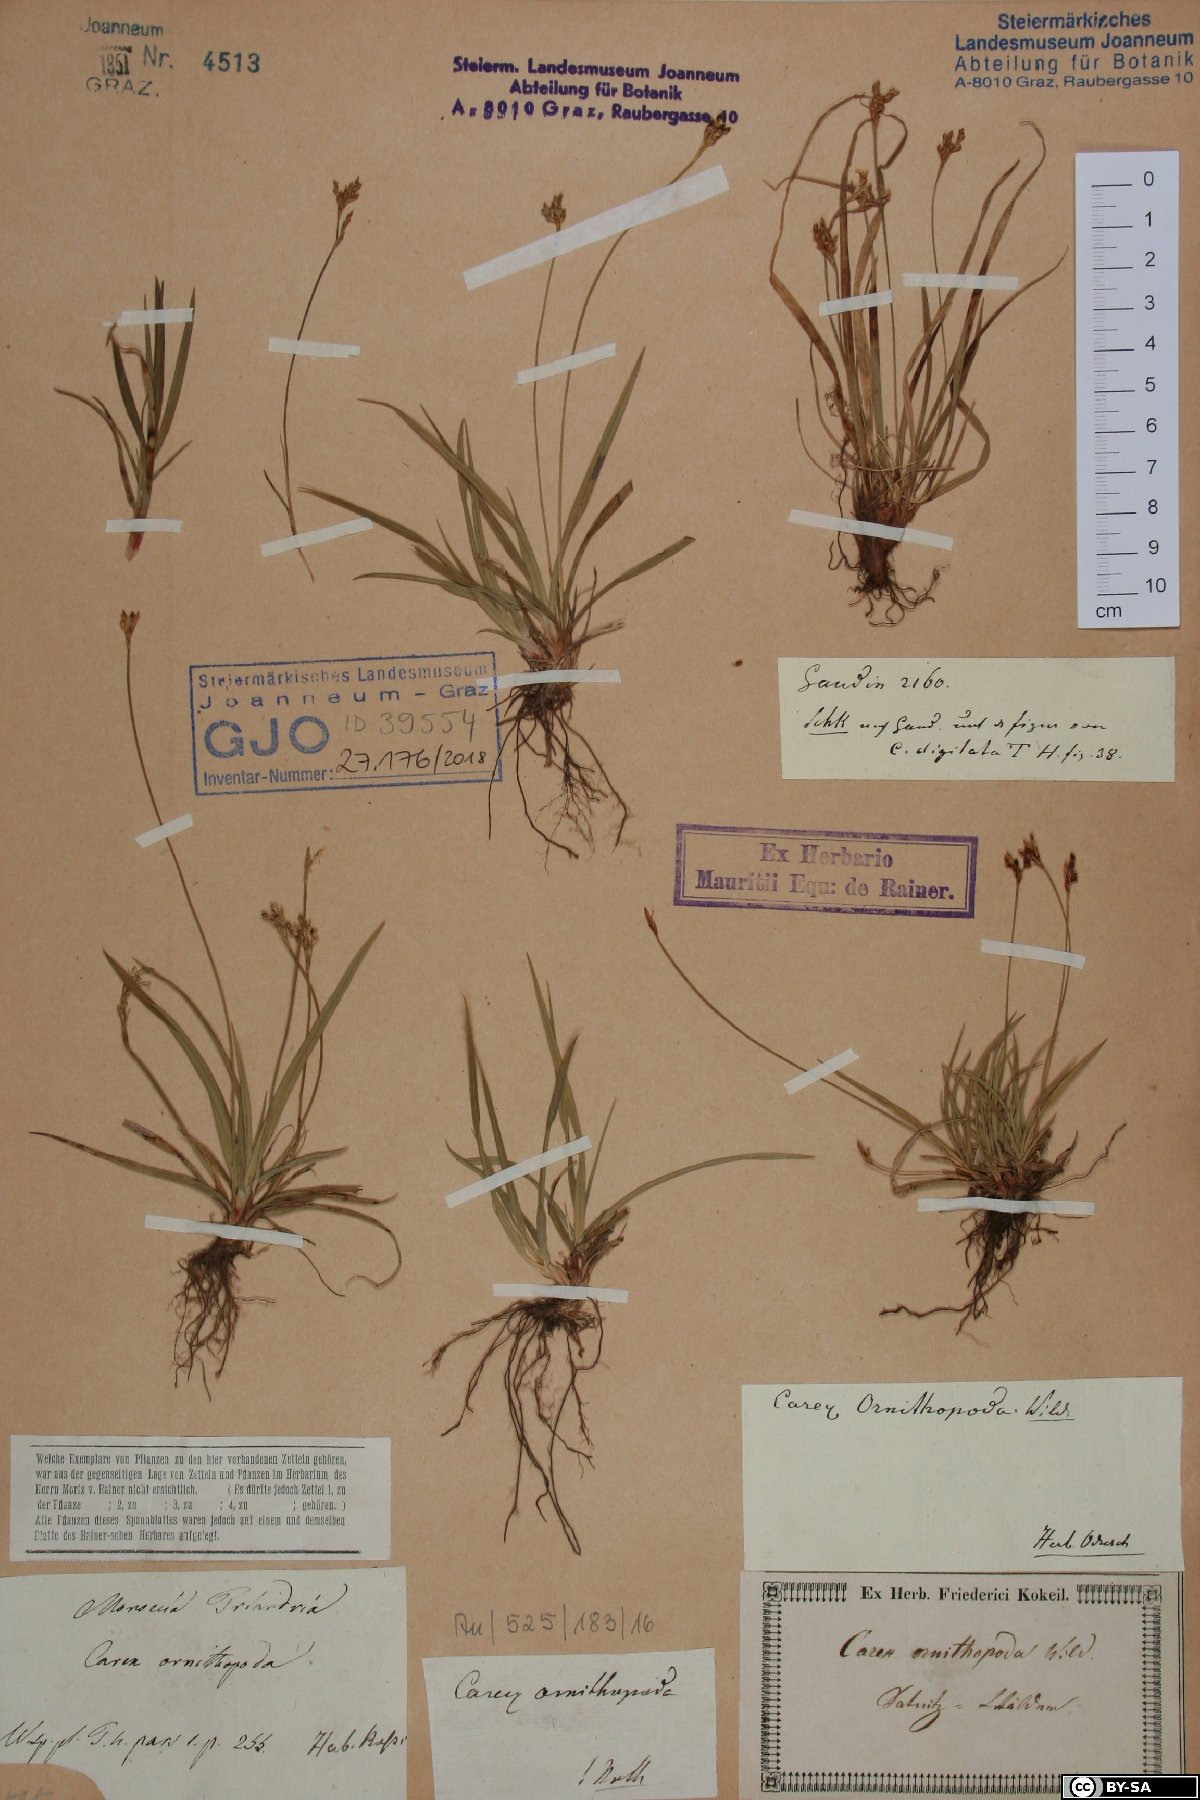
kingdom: Plantae
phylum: Tracheophyta
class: Liliopsida
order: Poales
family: Cyperaceae
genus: Carex
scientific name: Carex ornithopoda
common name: Bird's-foot sedge
